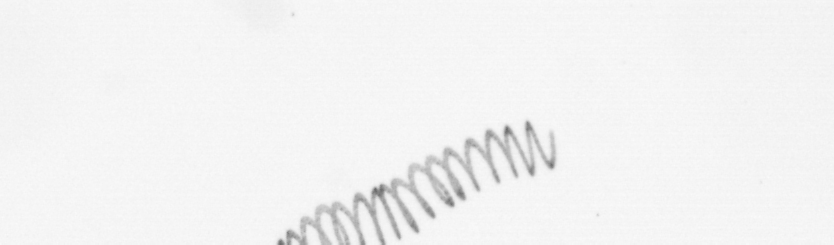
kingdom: Chromista
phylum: Ochrophyta
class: Bacillariophyceae
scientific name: Bacillariophyceae
